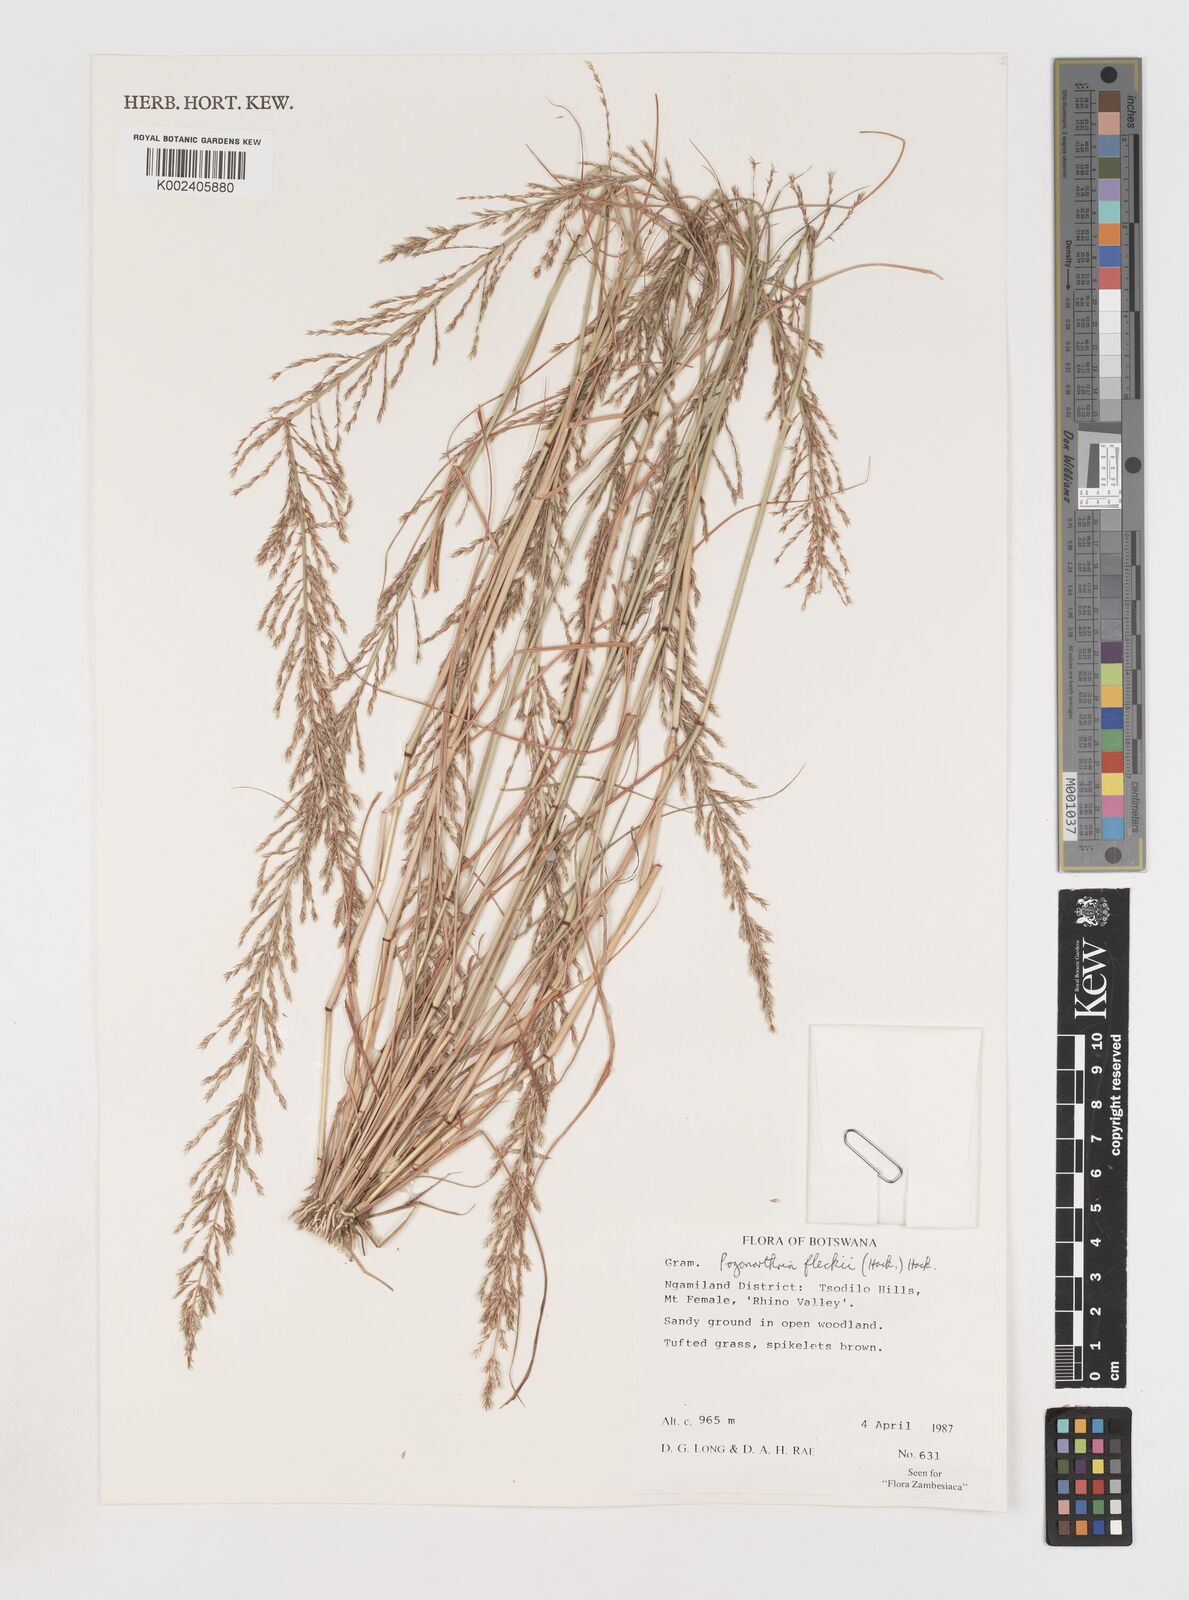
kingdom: Plantae
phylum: Tracheophyta
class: Liliopsida
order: Poales
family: Poaceae
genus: Pogonarthria
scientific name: Pogonarthria fleckii
